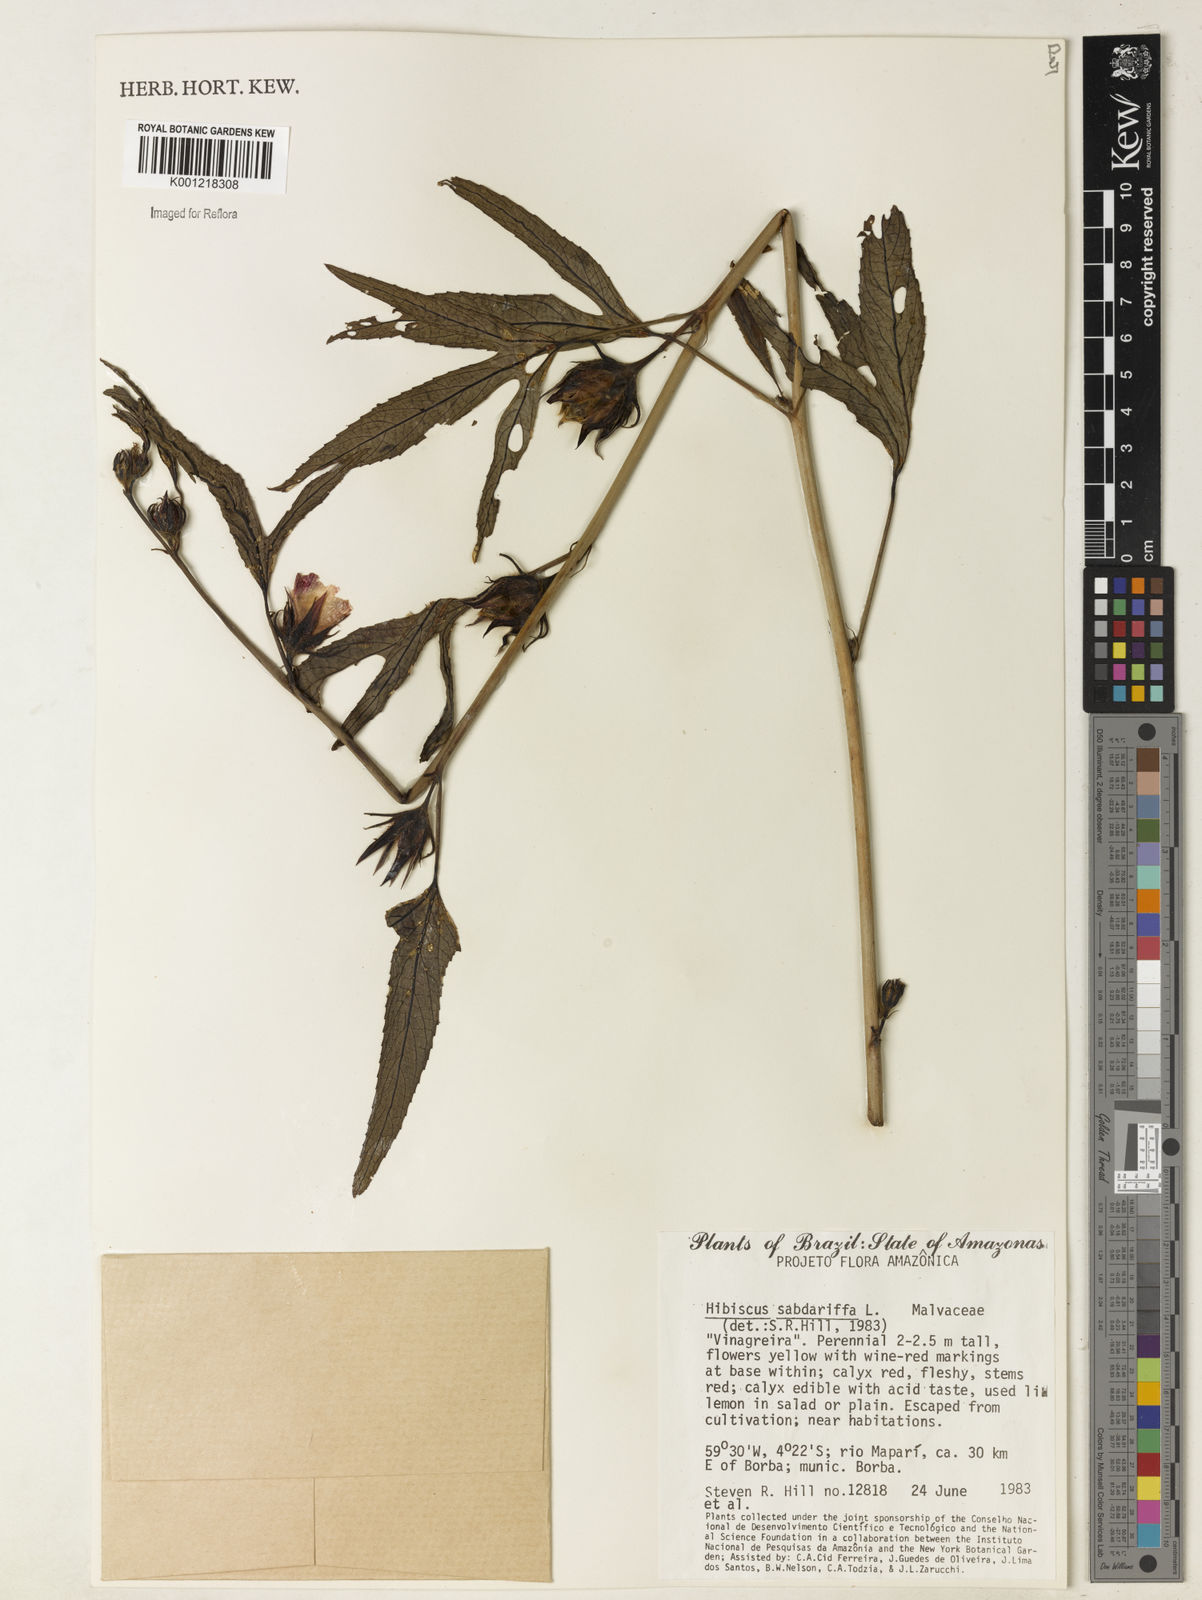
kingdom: Plantae
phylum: Tracheophyta
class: Magnoliopsida
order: Malvales
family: Malvaceae
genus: Hibiscus
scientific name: Hibiscus sabdariffa
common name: Roselle
